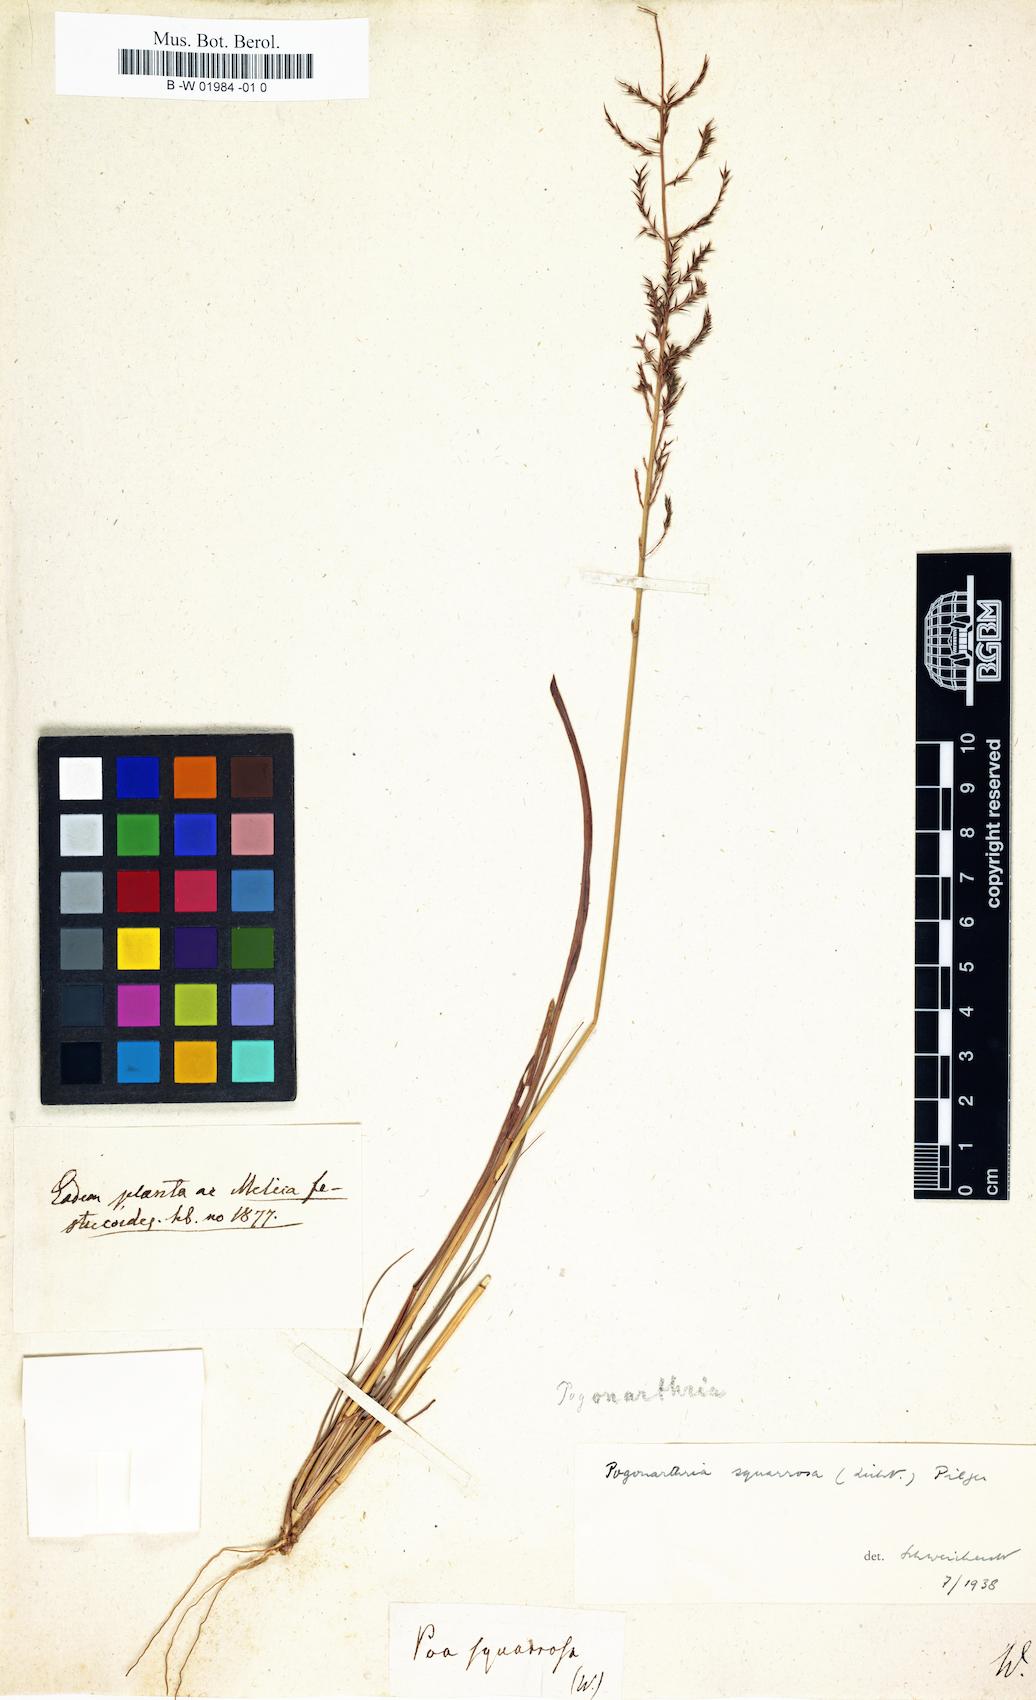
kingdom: Plantae
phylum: Tracheophyta
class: Liliopsida
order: Poales
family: Poaceae
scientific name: Poaceae
